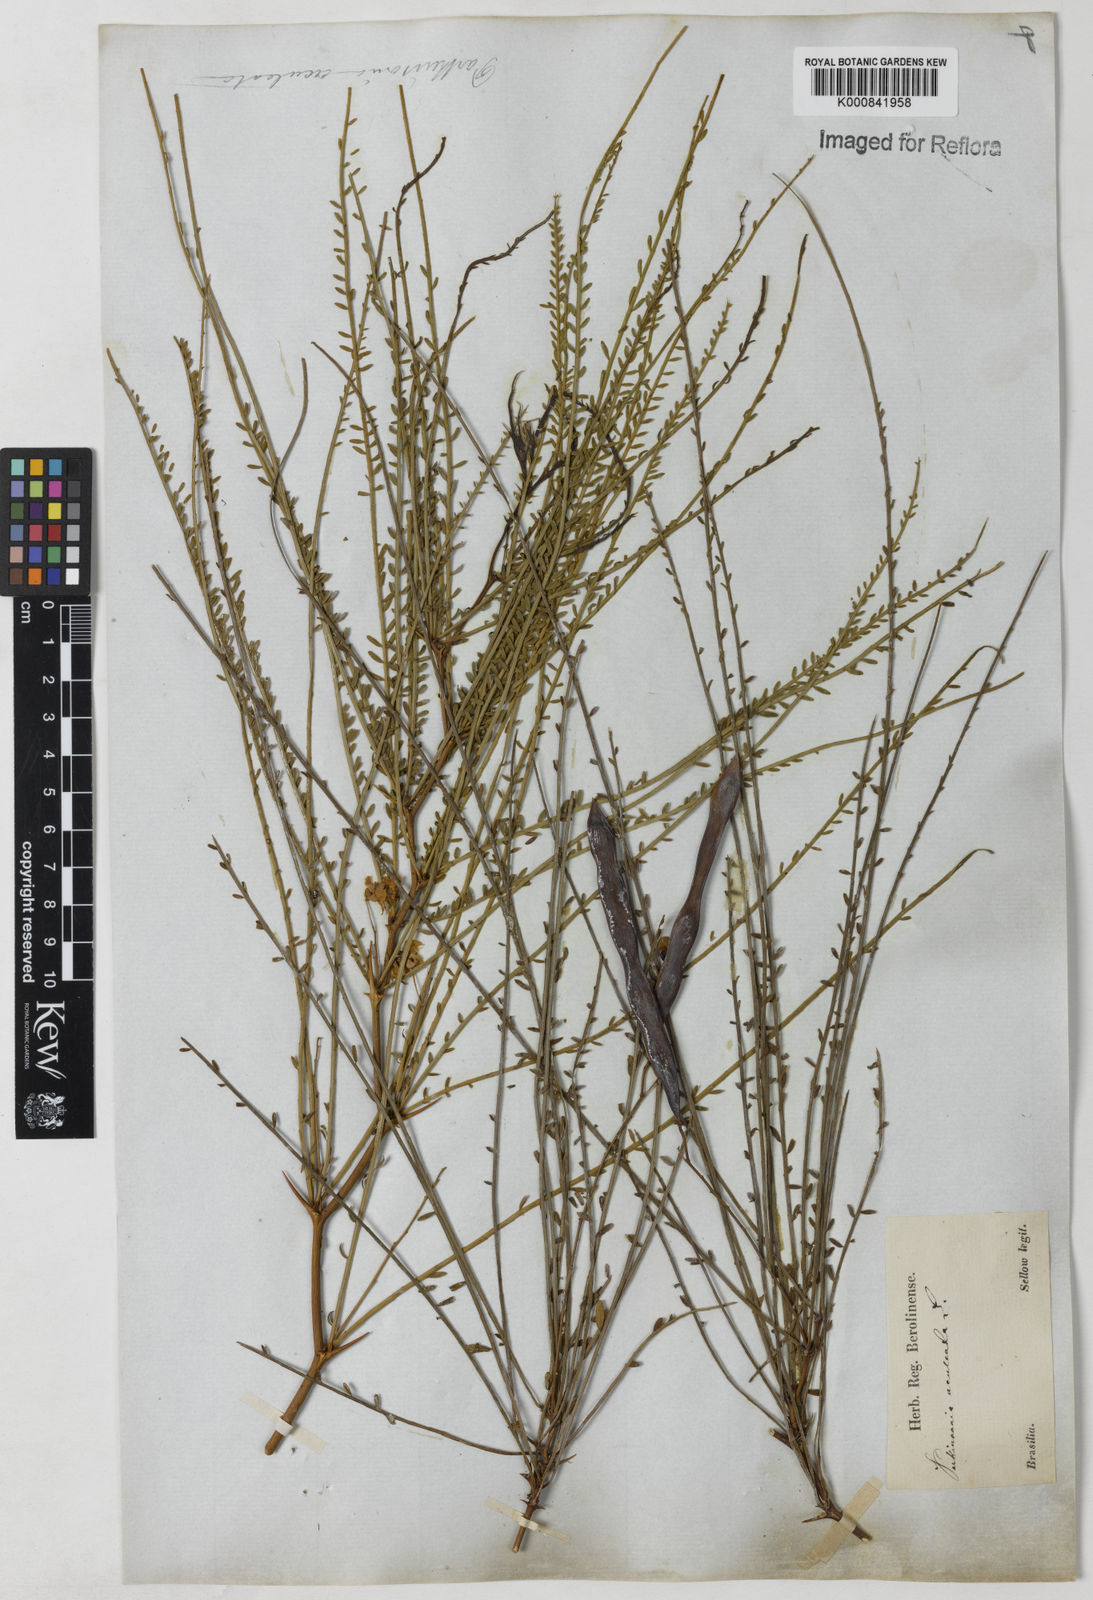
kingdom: Plantae
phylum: Tracheophyta
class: Magnoliopsida
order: Fabales
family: Fabaceae
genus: Parkinsonia
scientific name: Parkinsonia aculeata
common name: Jerusalem thorn
